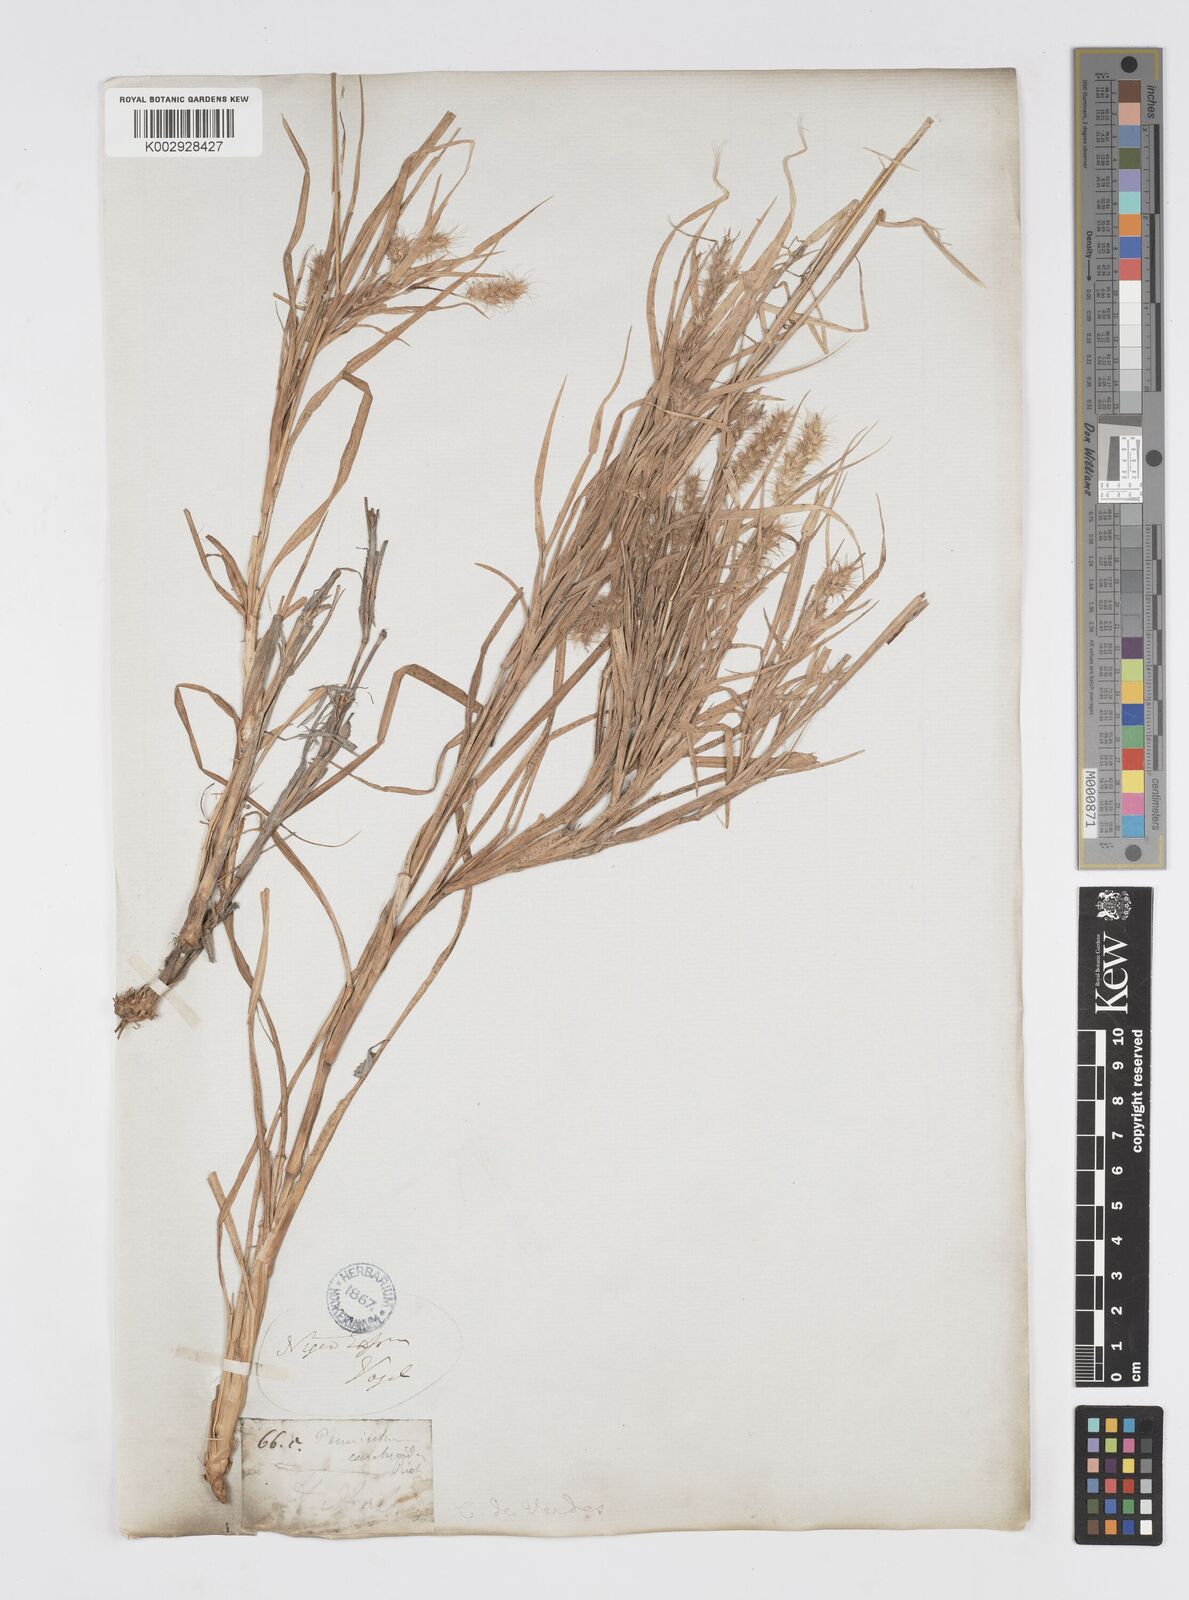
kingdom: Plantae
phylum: Tracheophyta
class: Liliopsida
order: Poales
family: Poaceae
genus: Cenchrus
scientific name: Cenchrus ciliaris
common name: Buffelgrass
